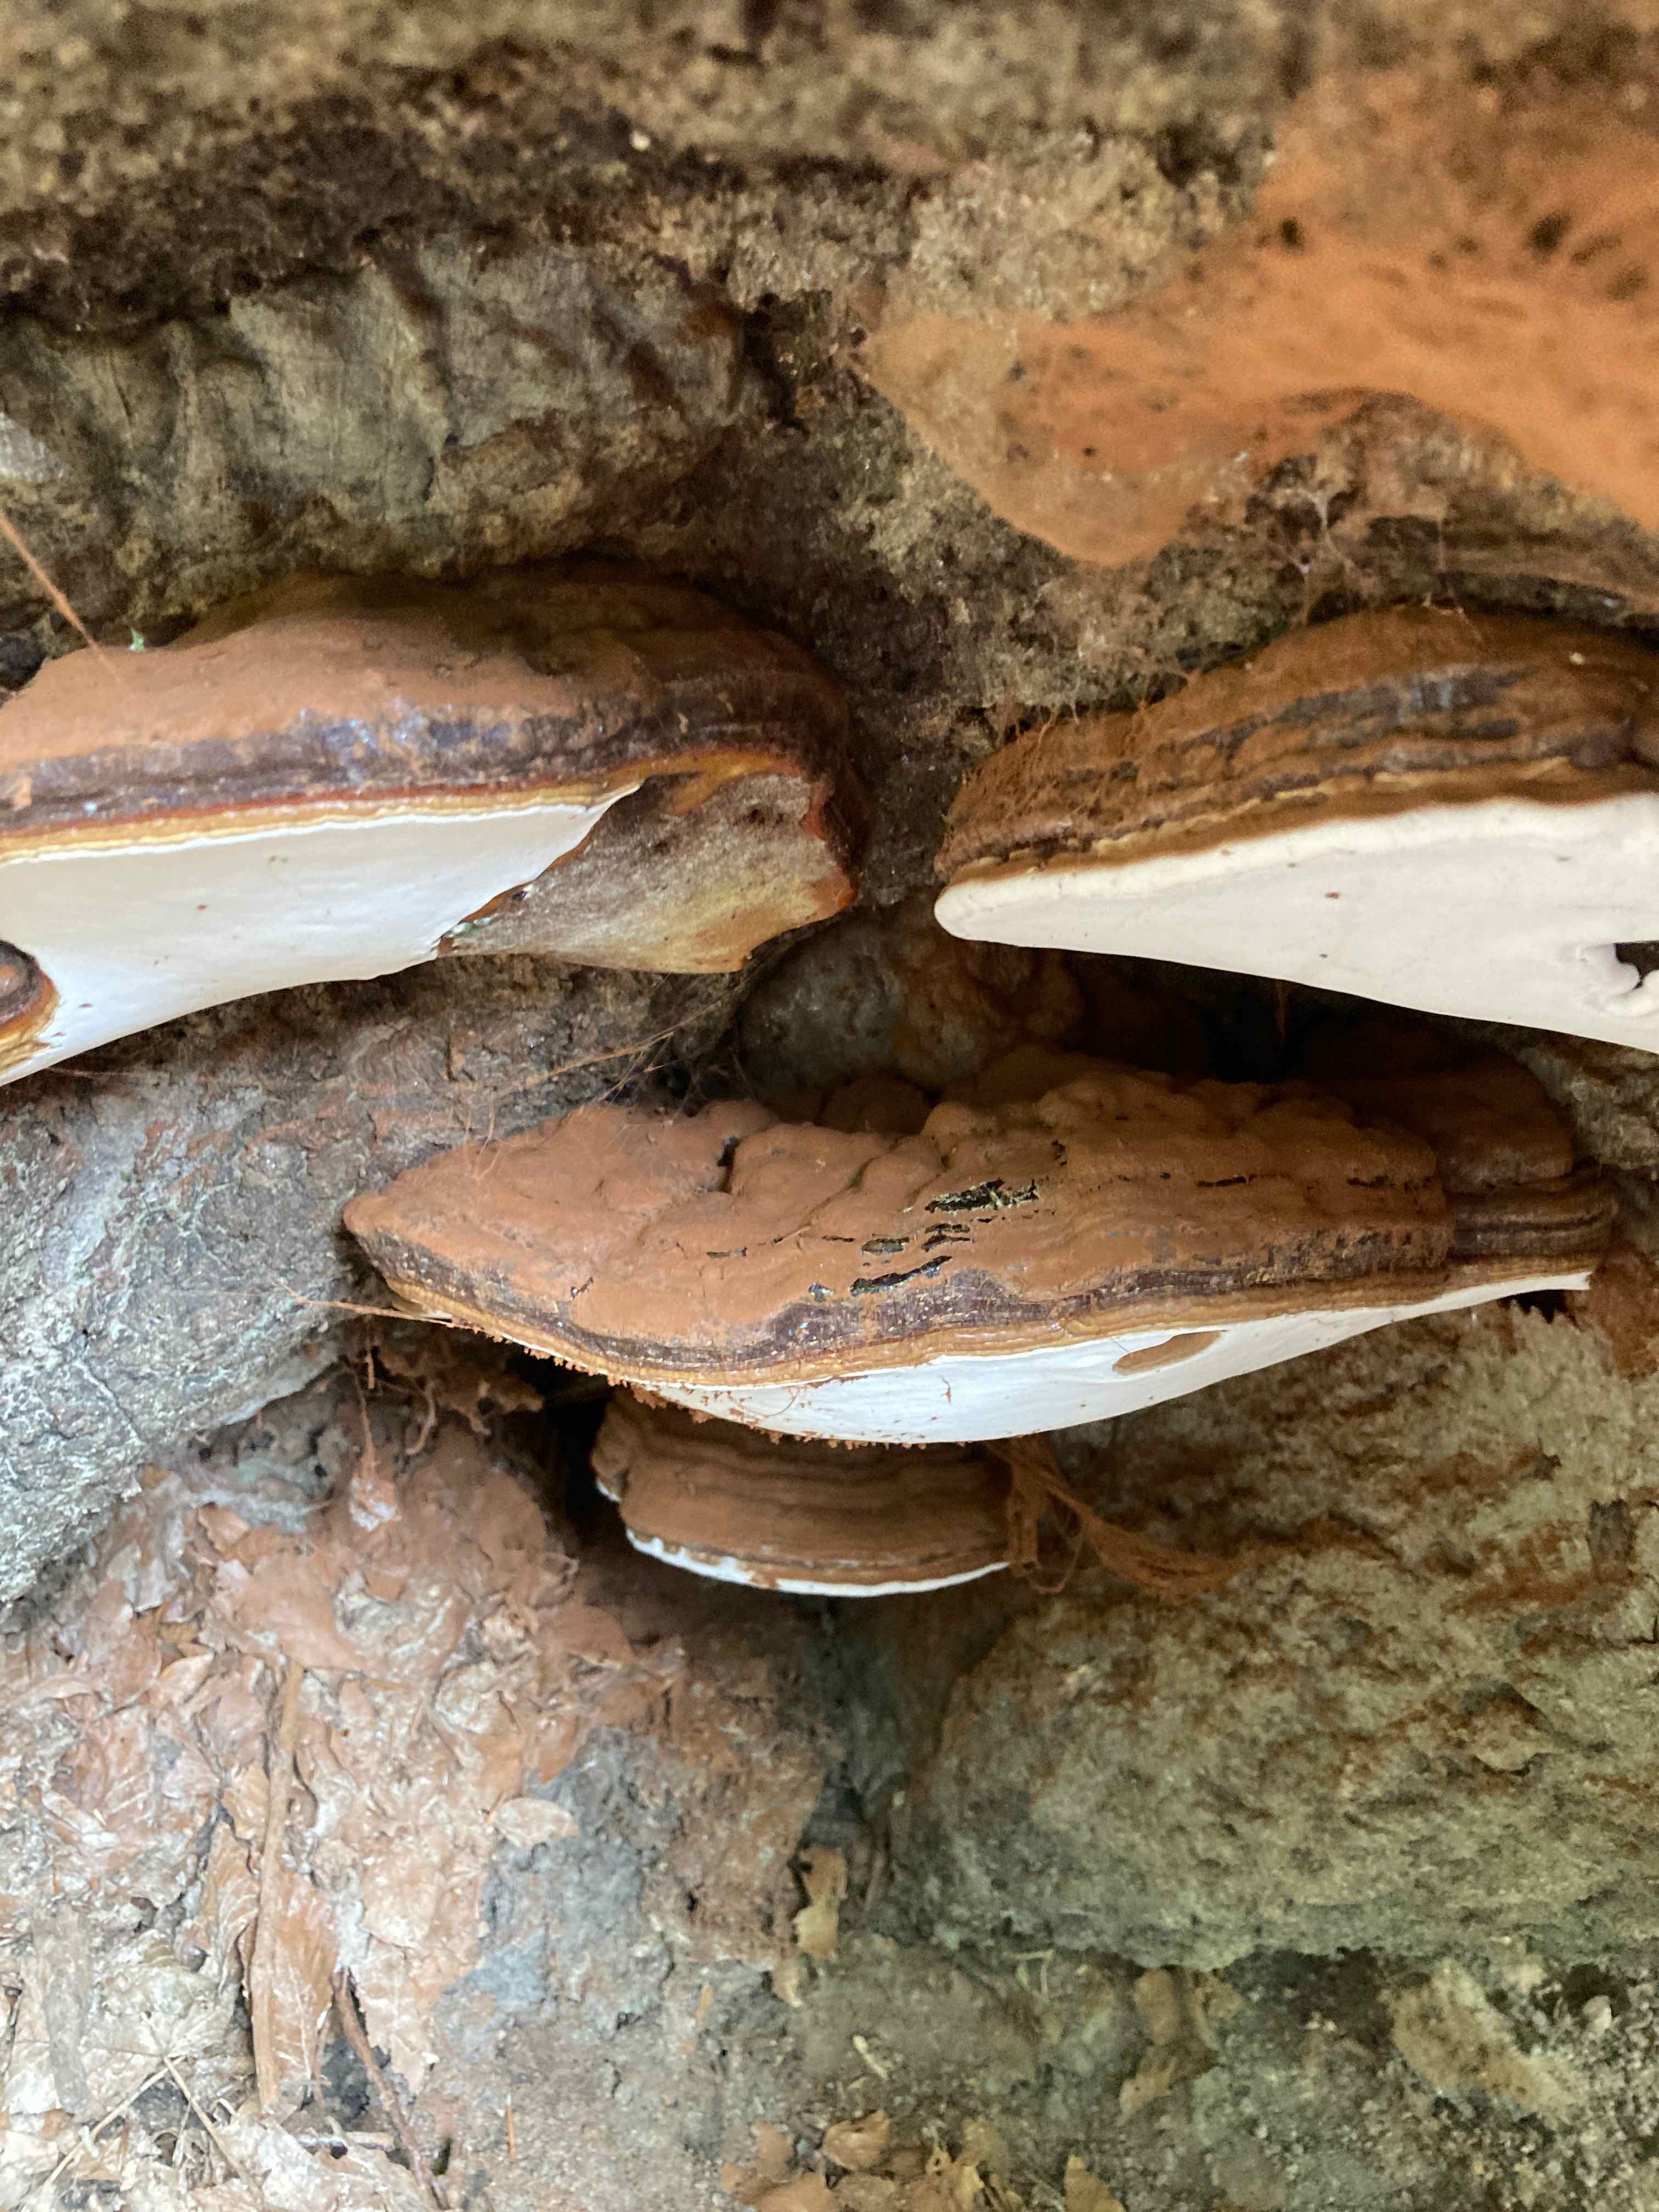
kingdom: Fungi
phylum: Basidiomycota
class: Agaricomycetes
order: Polyporales
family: Polyporaceae
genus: Ganoderma
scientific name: Ganoderma pfeifferi
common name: kobberrød lakporesvamp
